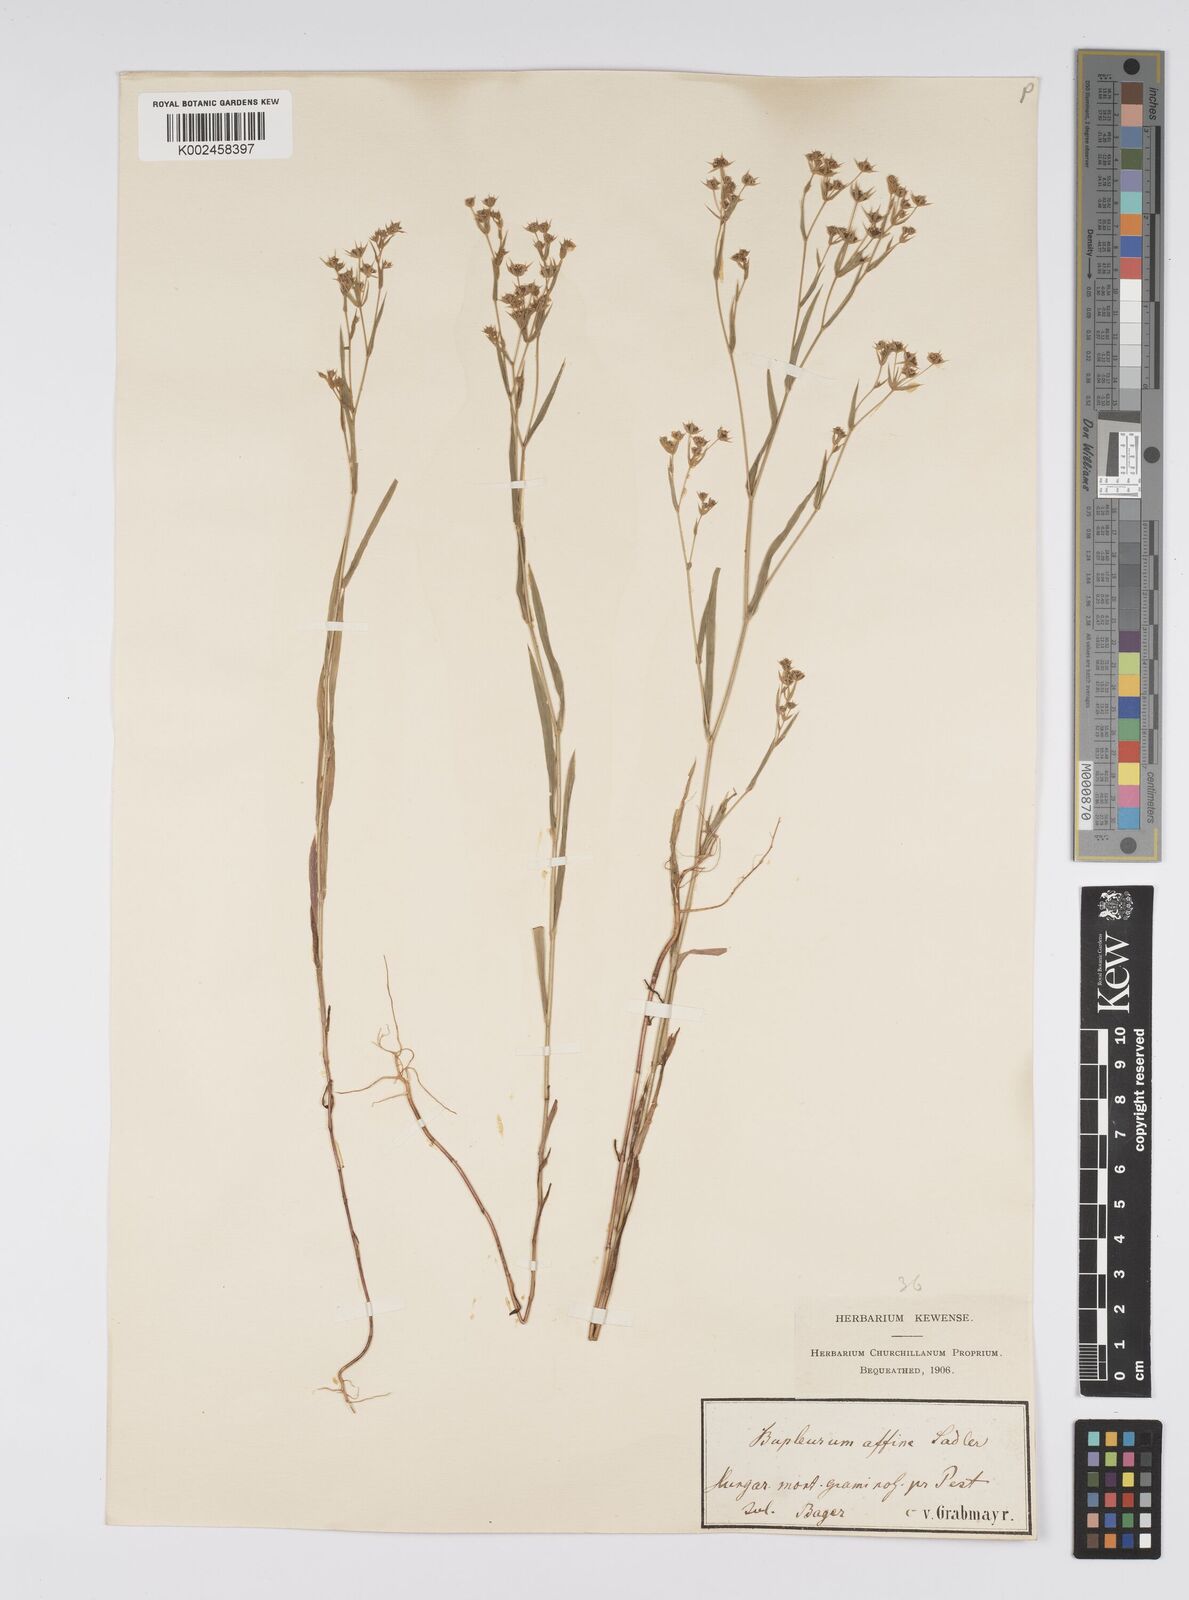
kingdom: Plantae
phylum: Tracheophyta
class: Magnoliopsida
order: Apiales
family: Apiaceae
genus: Bupleurum
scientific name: Bupleurum affine
